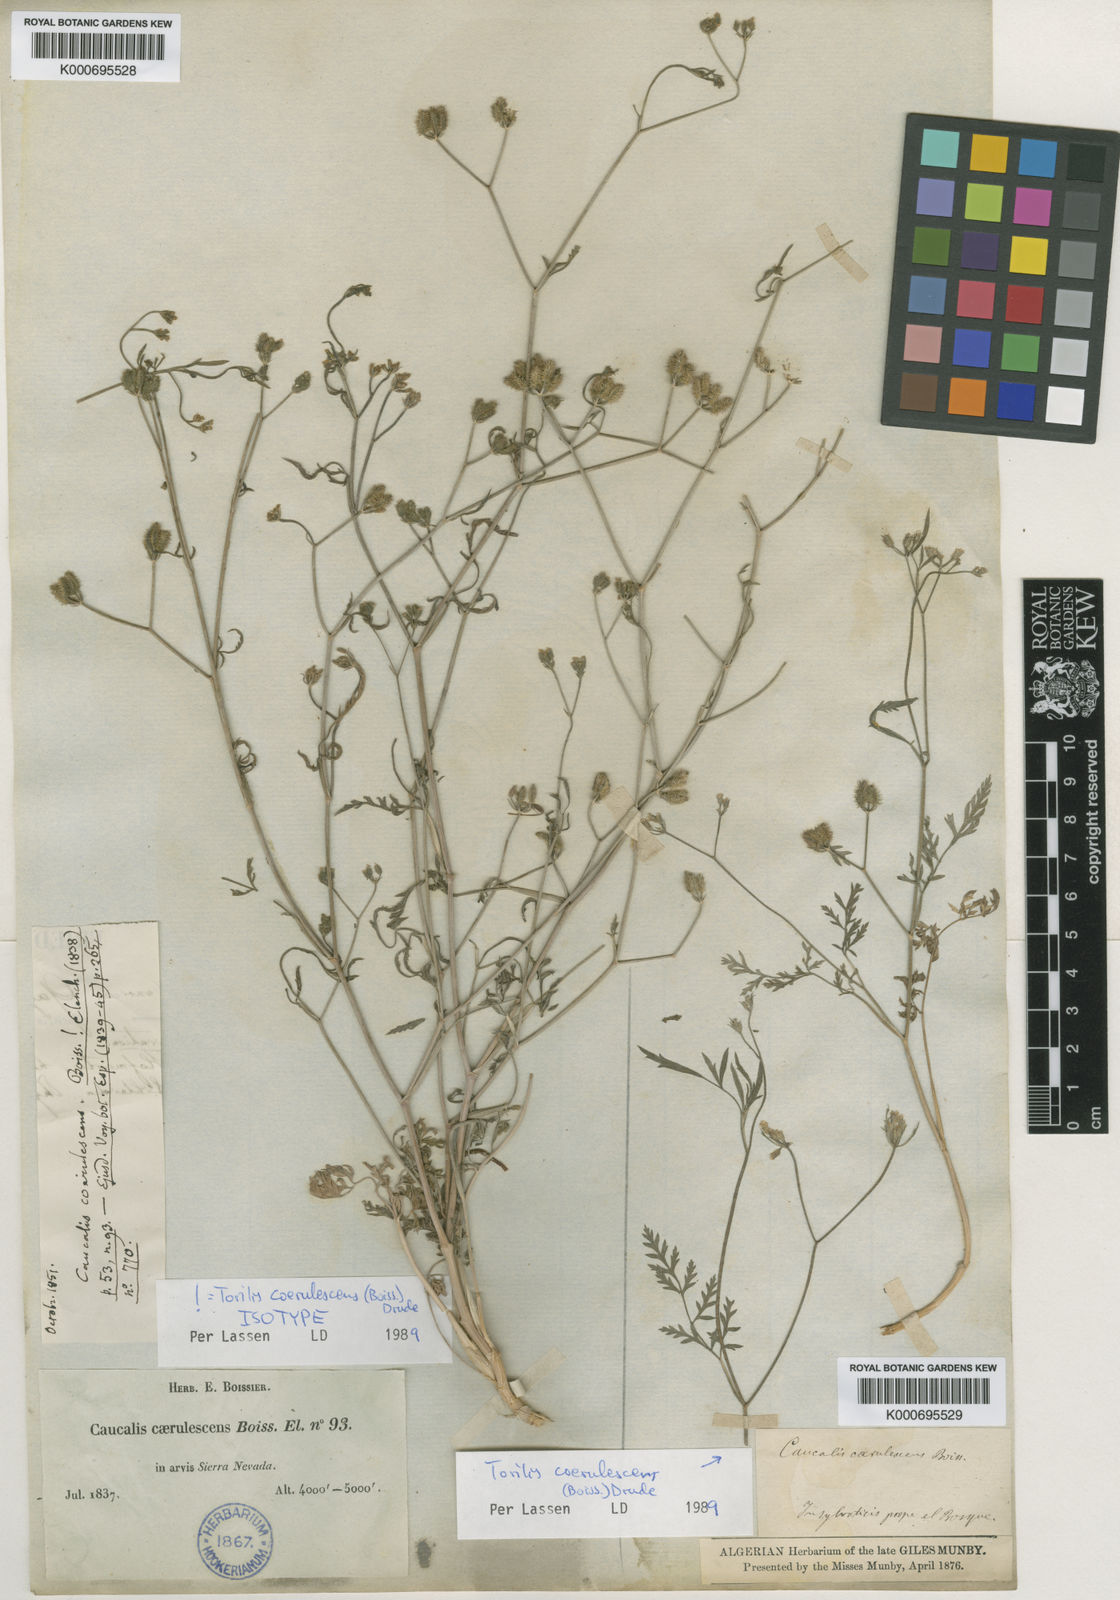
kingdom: Plantae
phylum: Tracheophyta
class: Magnoliopsida
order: Apiales
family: Apiaceae
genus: Torilis
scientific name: Torilis elongata
